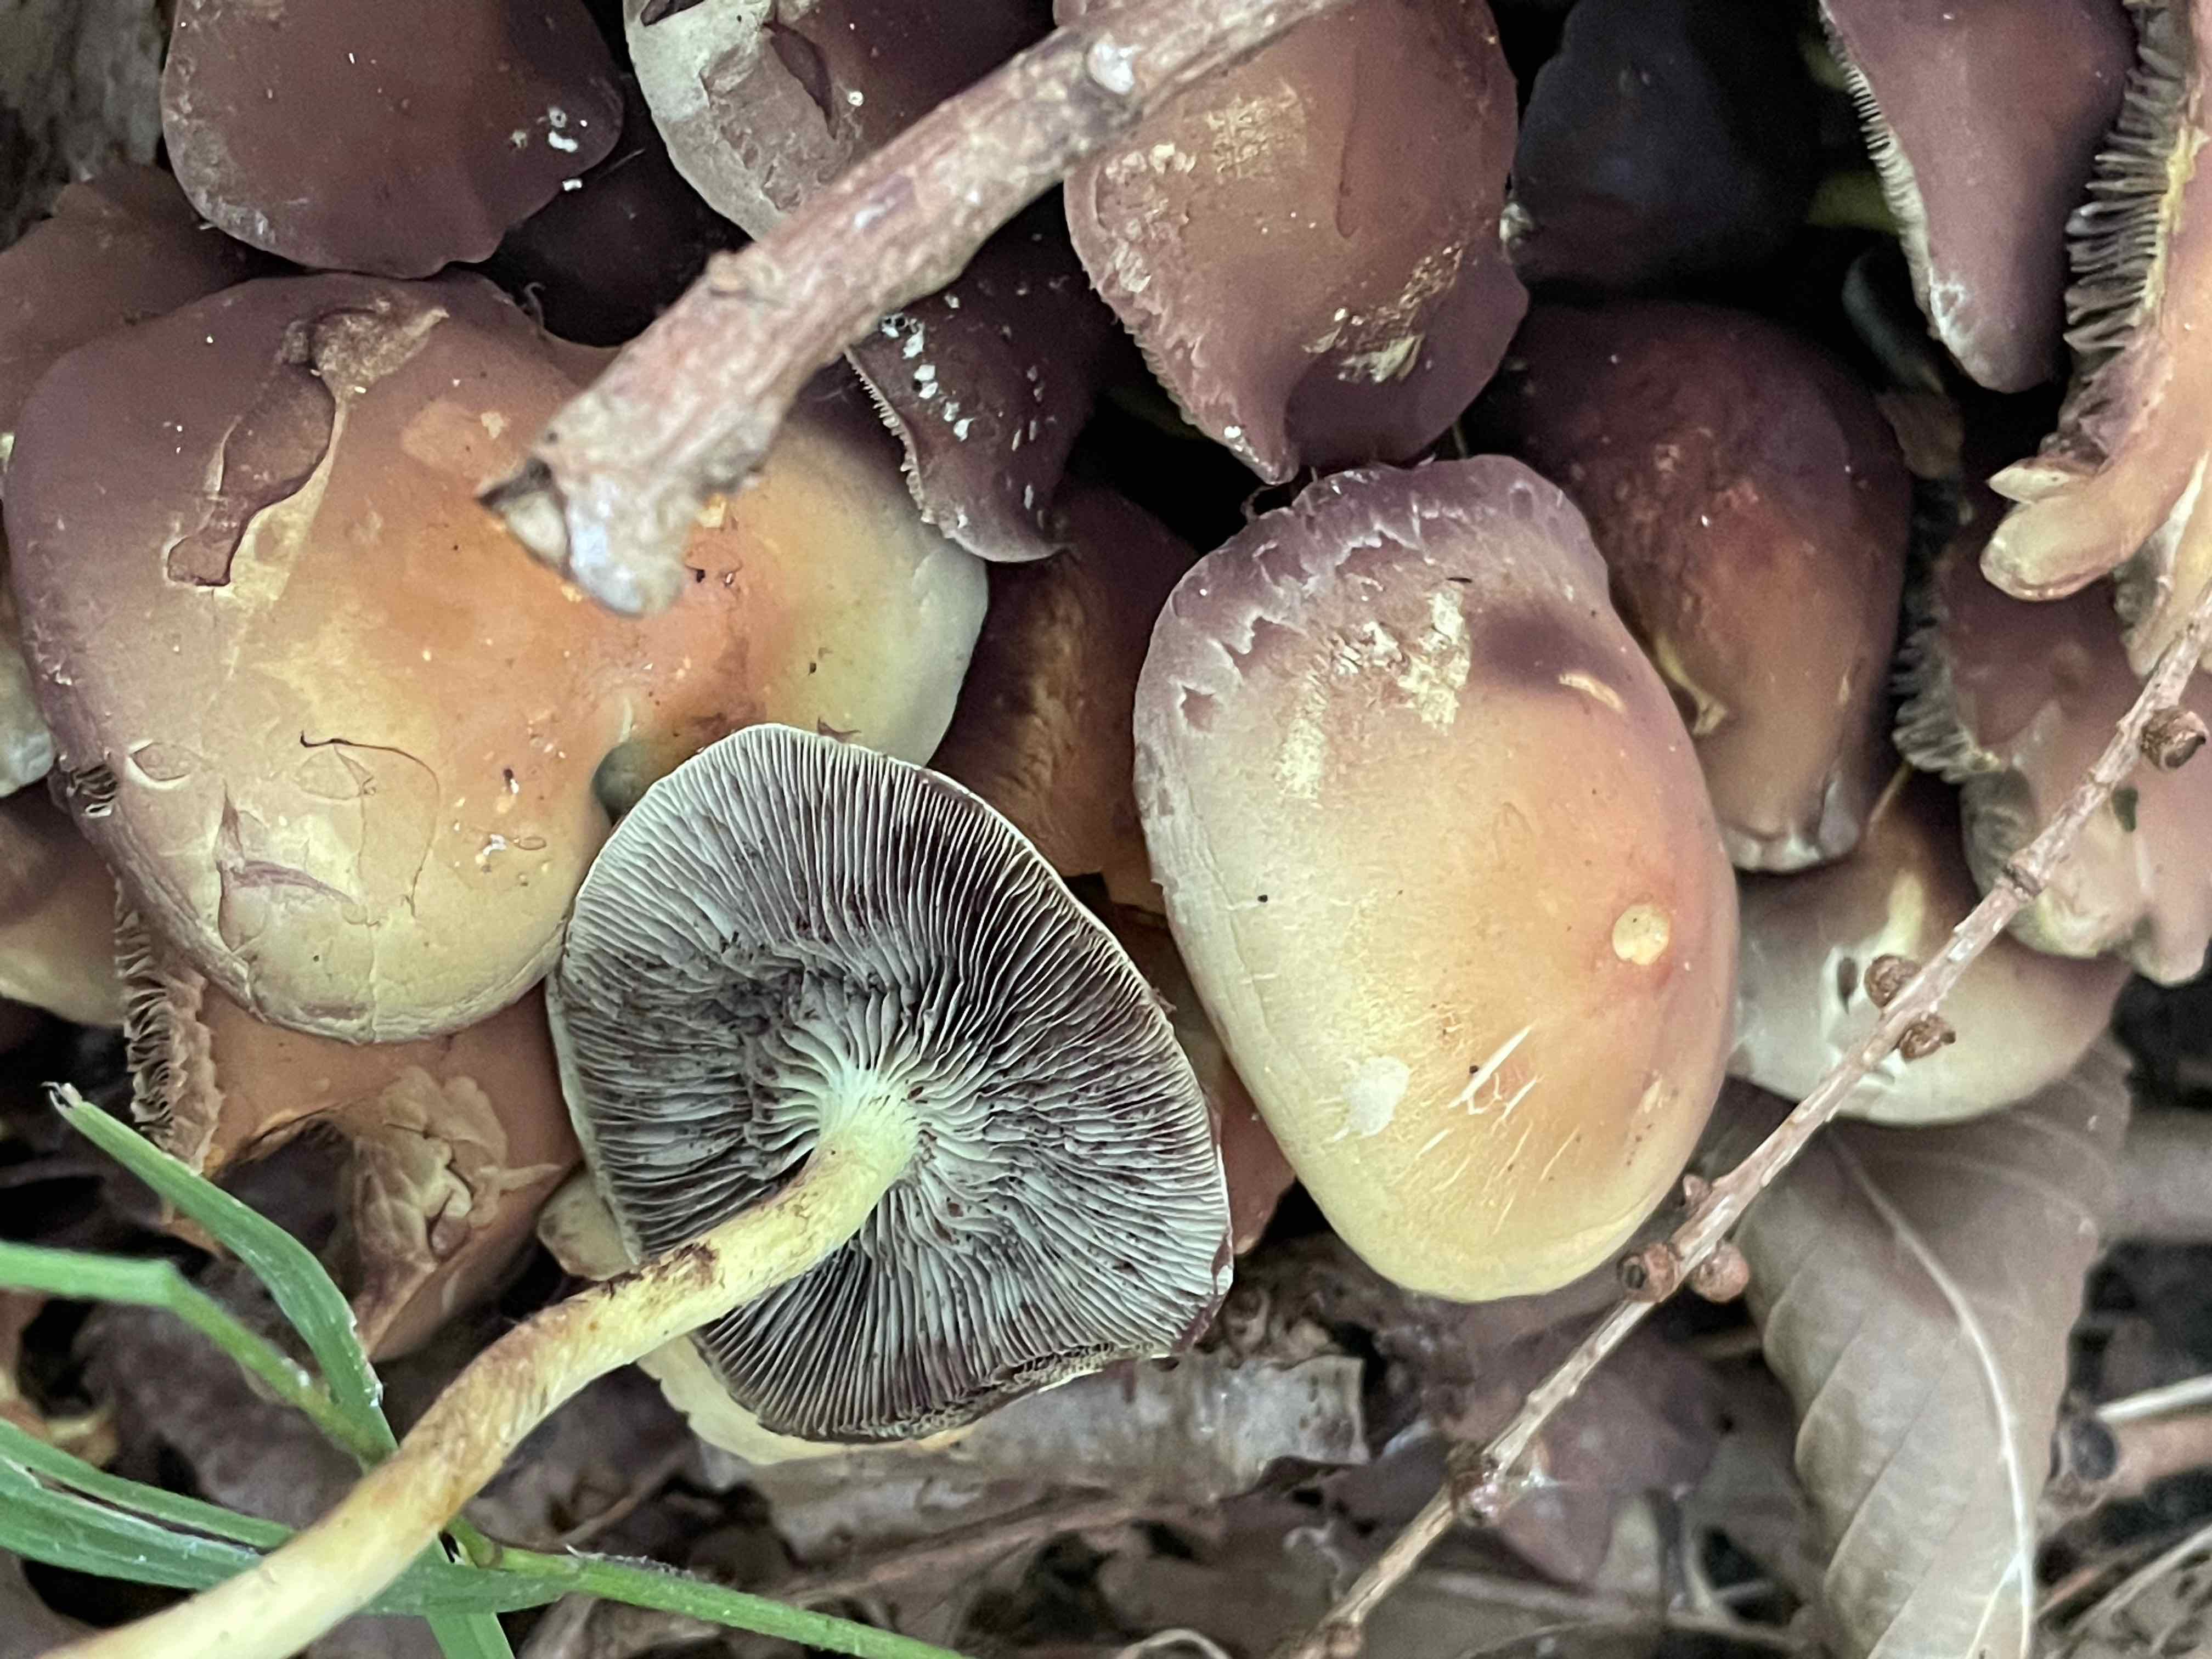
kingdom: Fungi
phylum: Basidiomycota
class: Agaricomycetes
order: Agaricales
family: Strophariaceae
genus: Hypholoma
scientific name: Hypholoma fasciculare
